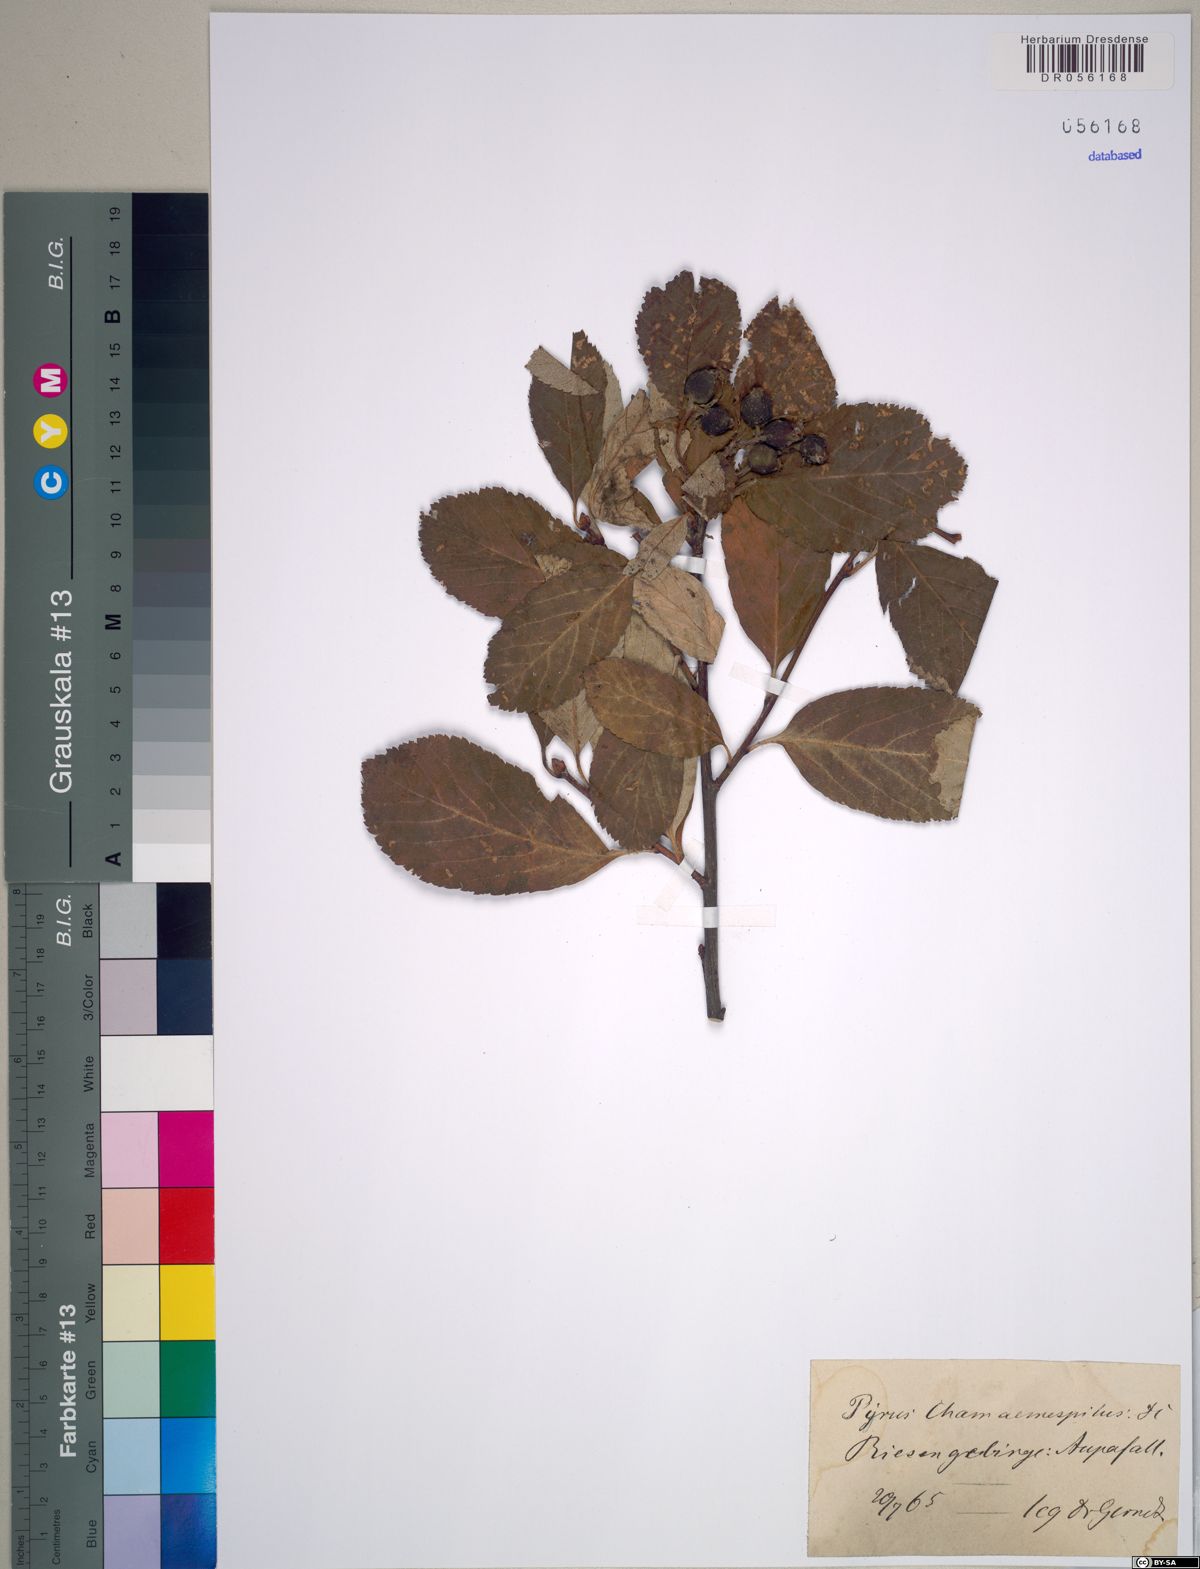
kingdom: Plantae
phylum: Tracheophyta
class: Magnoliopsida
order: Rosales
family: Rosaceae
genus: Chamaemespilus
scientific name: Chamaemespilus alpina
